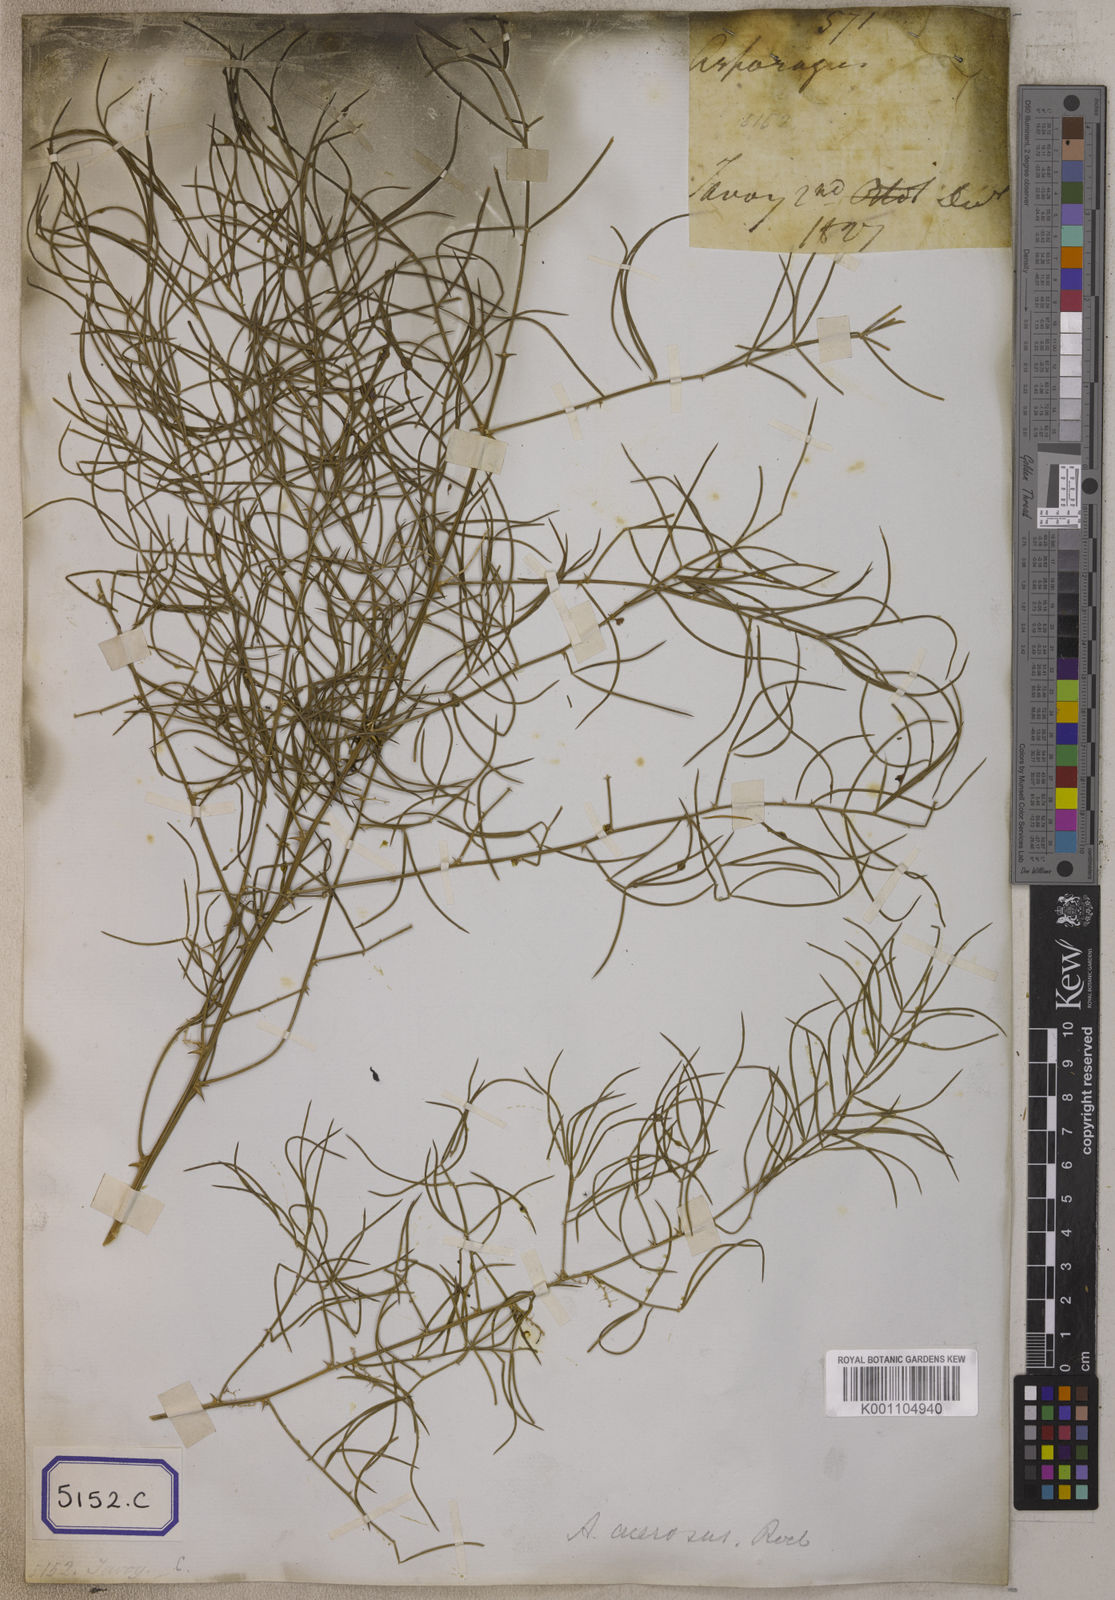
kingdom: Plantae
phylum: Tracheophyta
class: Liliopsida
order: Asparagales
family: Asparagaceae
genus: Asparagus
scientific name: Asparagus racemosus
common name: Asparagus-fern
